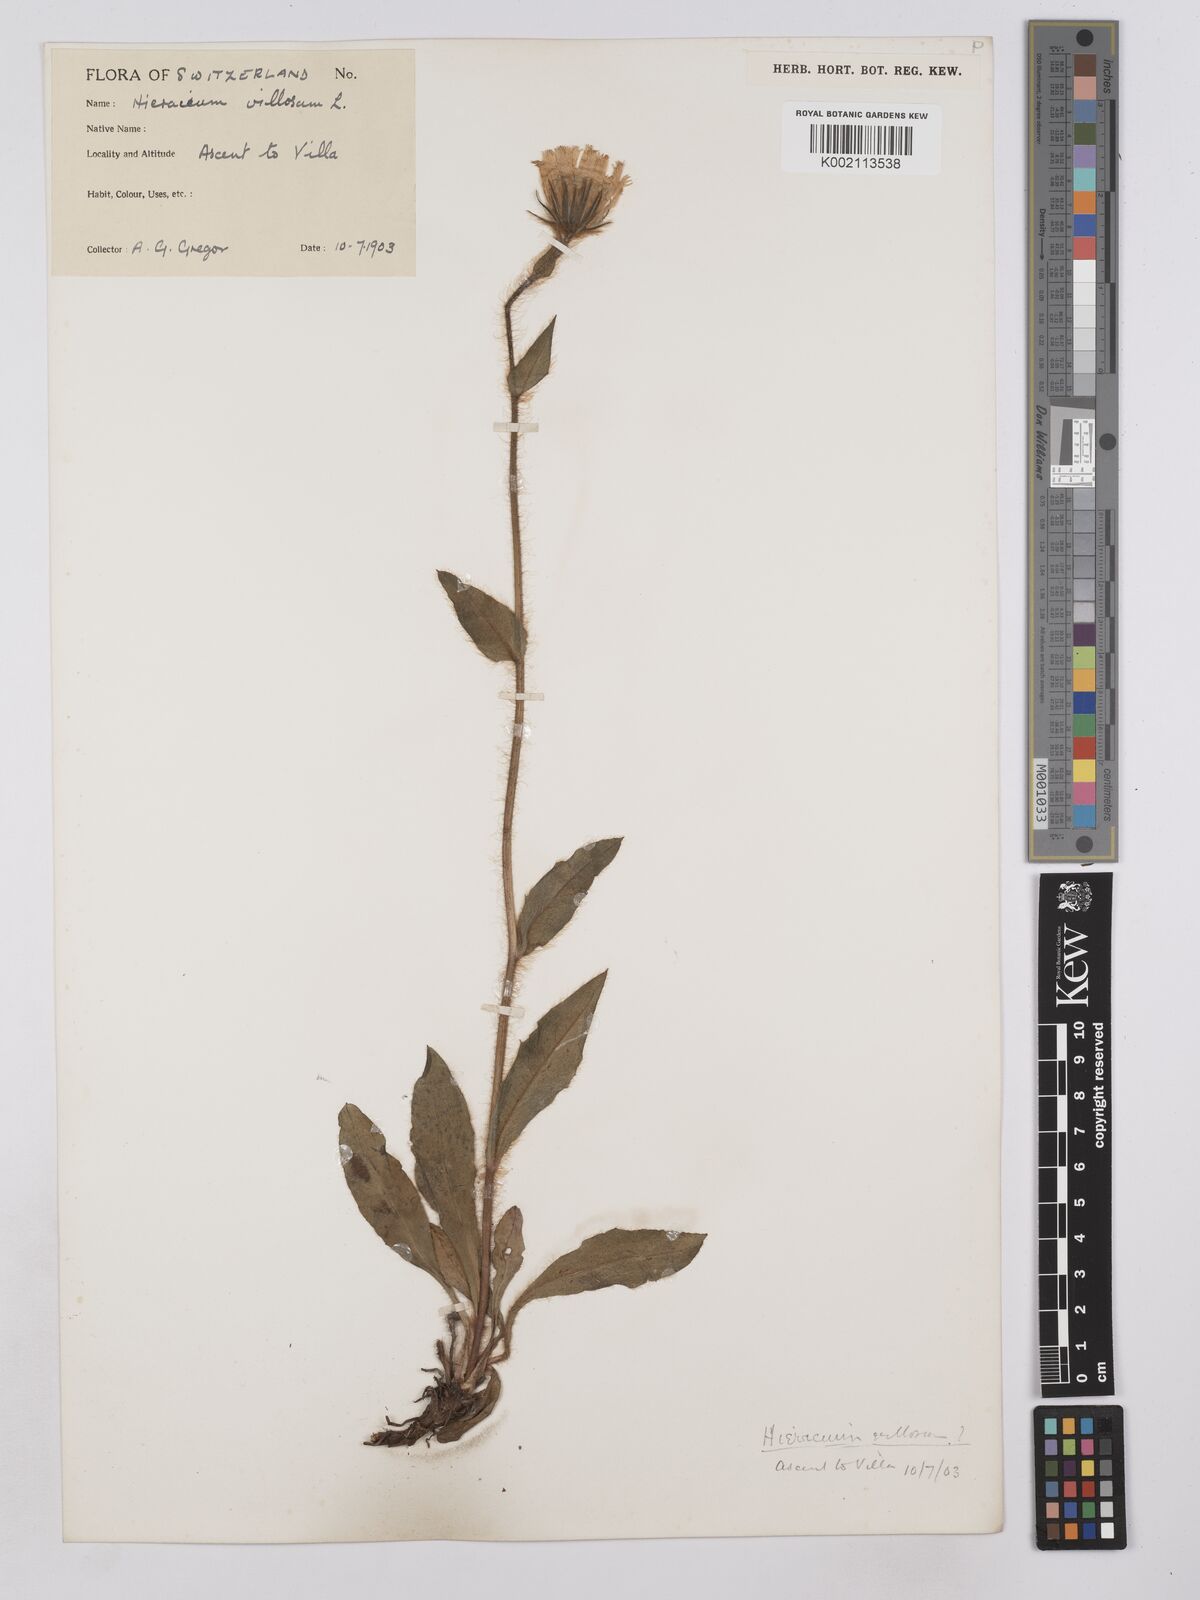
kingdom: Plantae
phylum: Tracheophyta
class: Magnoliopsida
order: Asterales
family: Asteraceae
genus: Hieracium
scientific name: Hieracium villosum
